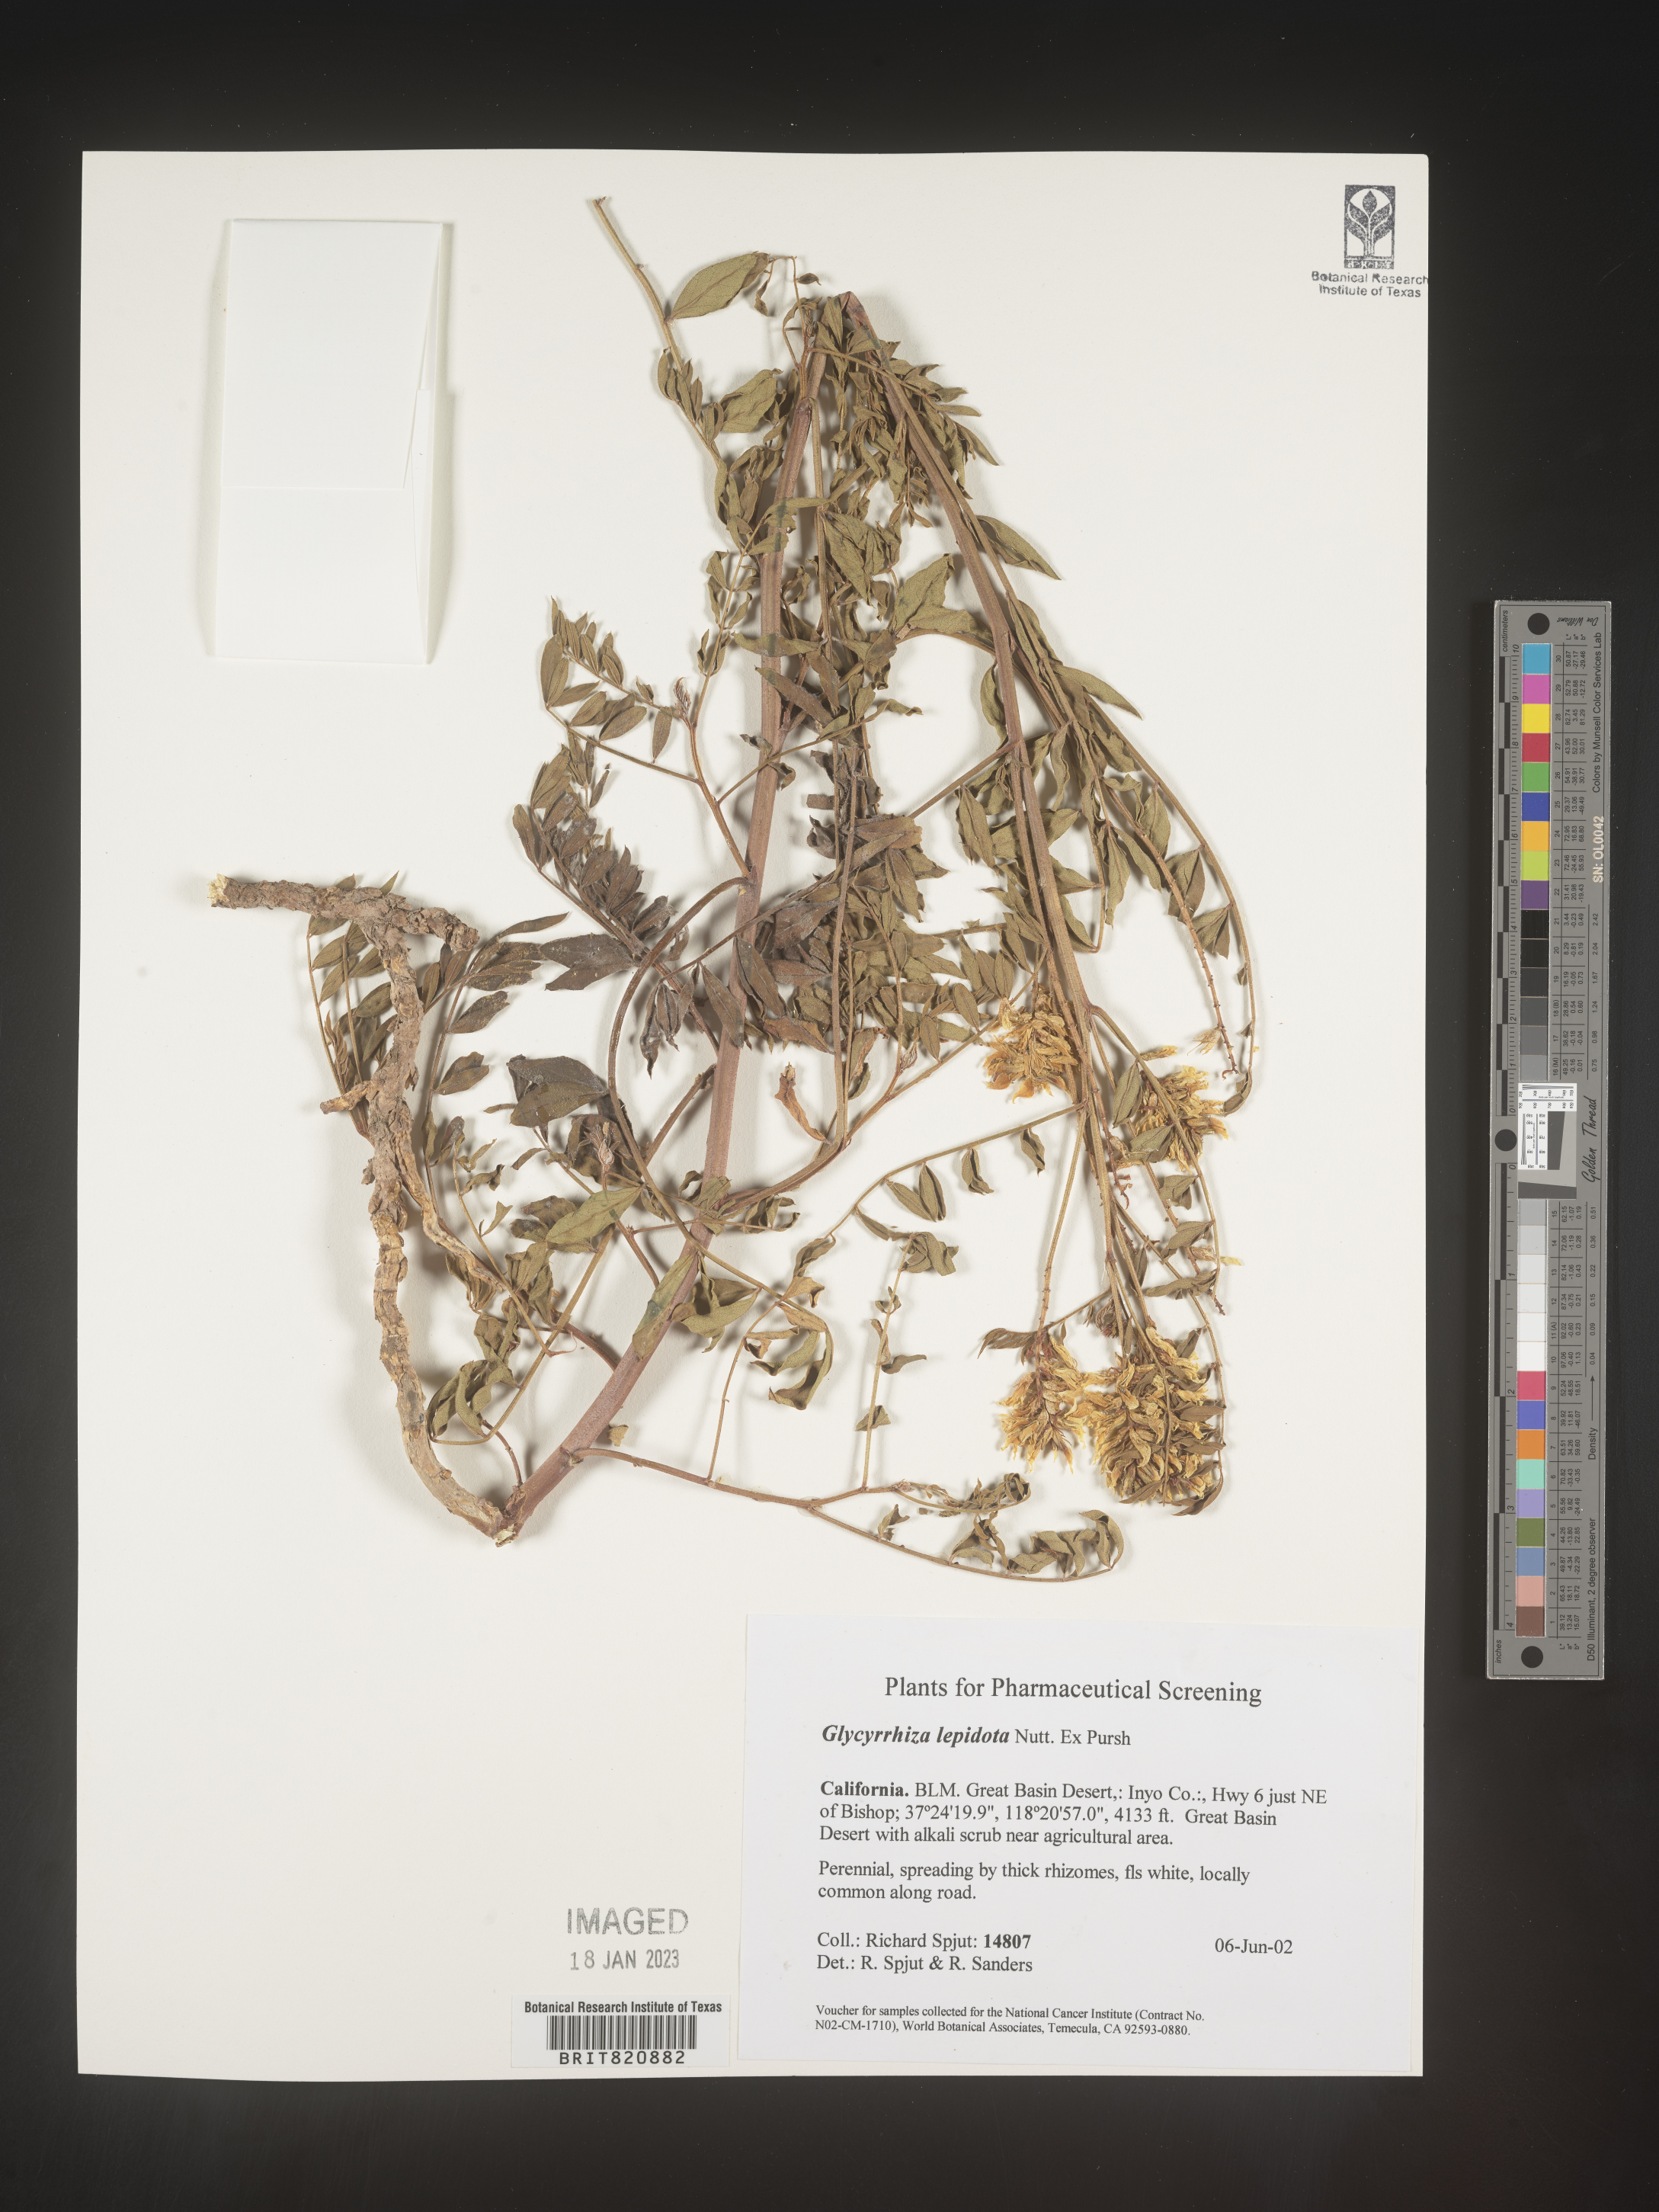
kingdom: Plantae
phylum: Tracheophyta
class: Magnoliopsida
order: Fabales
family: Fabaceae
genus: Glycyrrhiza
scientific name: Glycyrrhiza lepidota
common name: American liquorice
